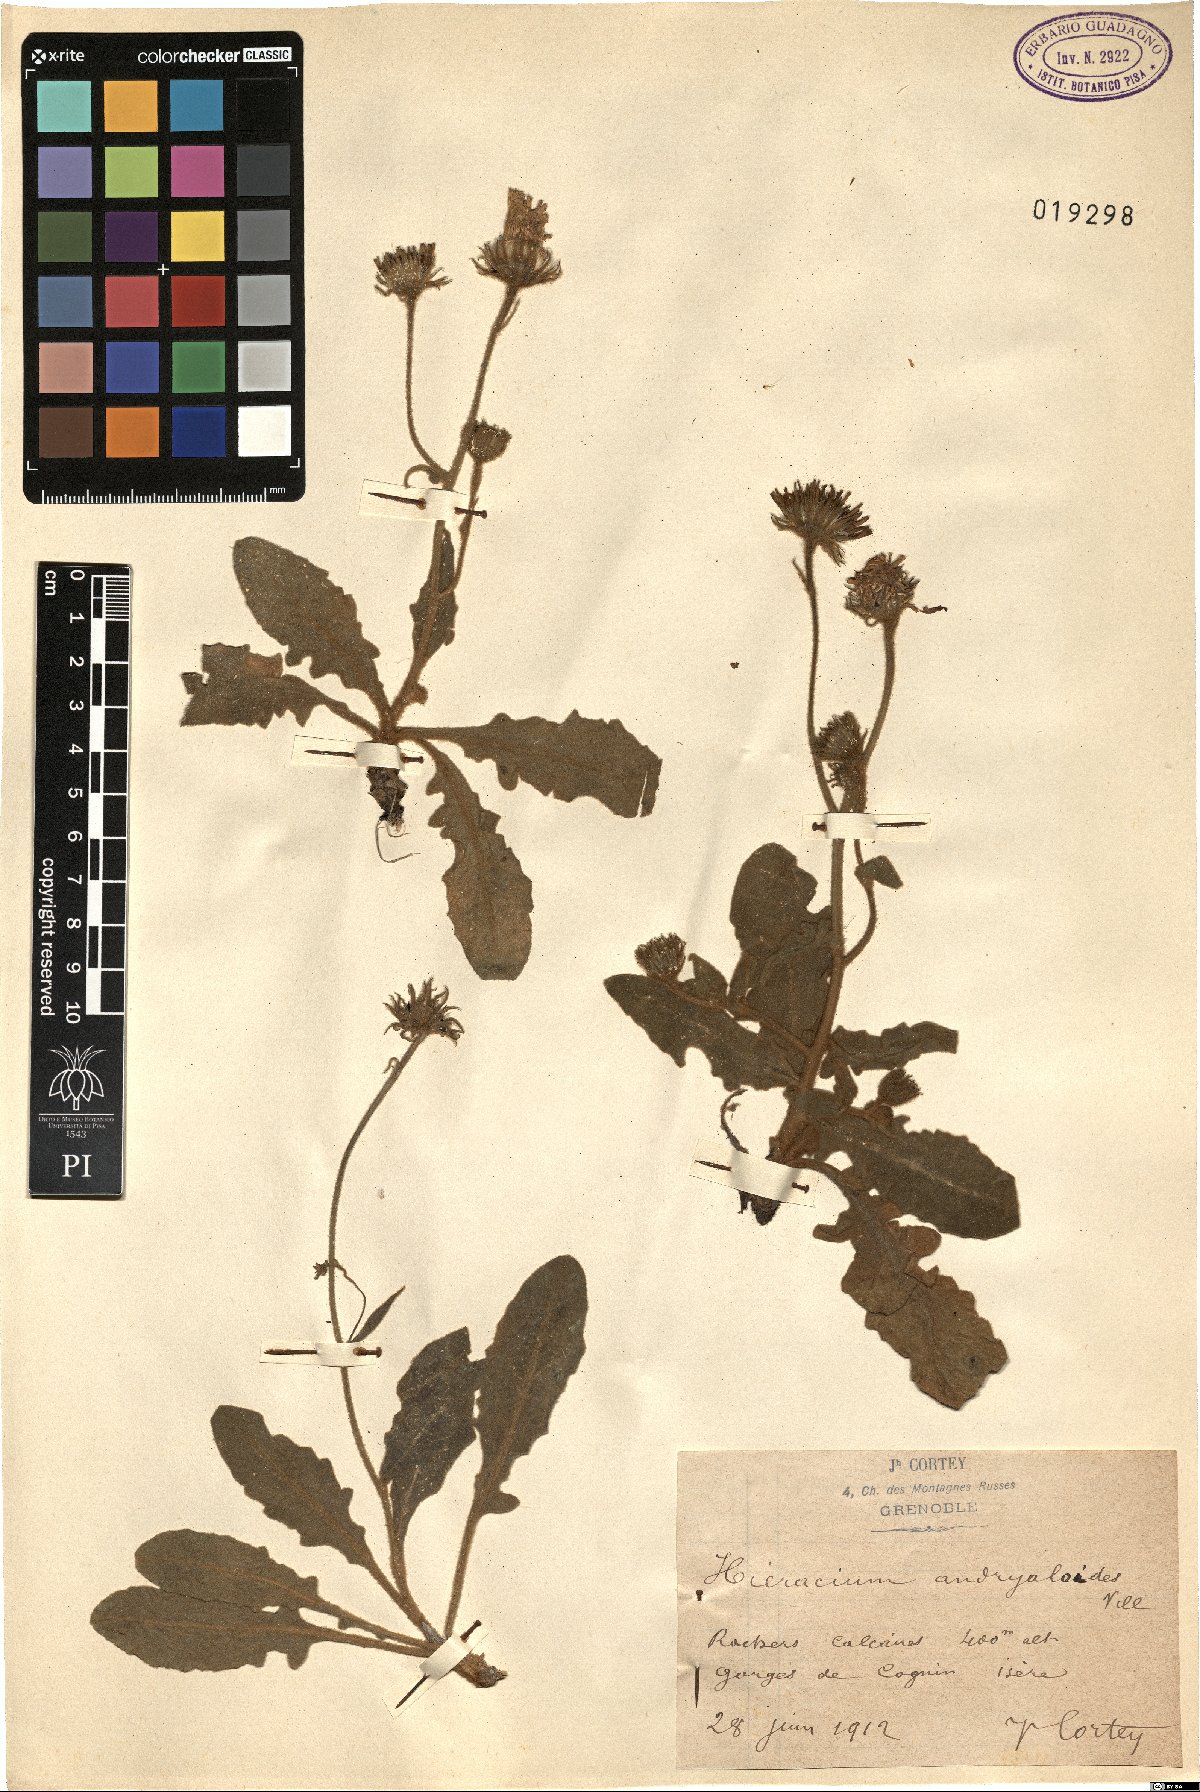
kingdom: Plantae
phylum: Tracheophyta
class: Magnoliopsida
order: Asterales
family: Asteraceae
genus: Hieracium
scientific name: Hieracium tomentosum
